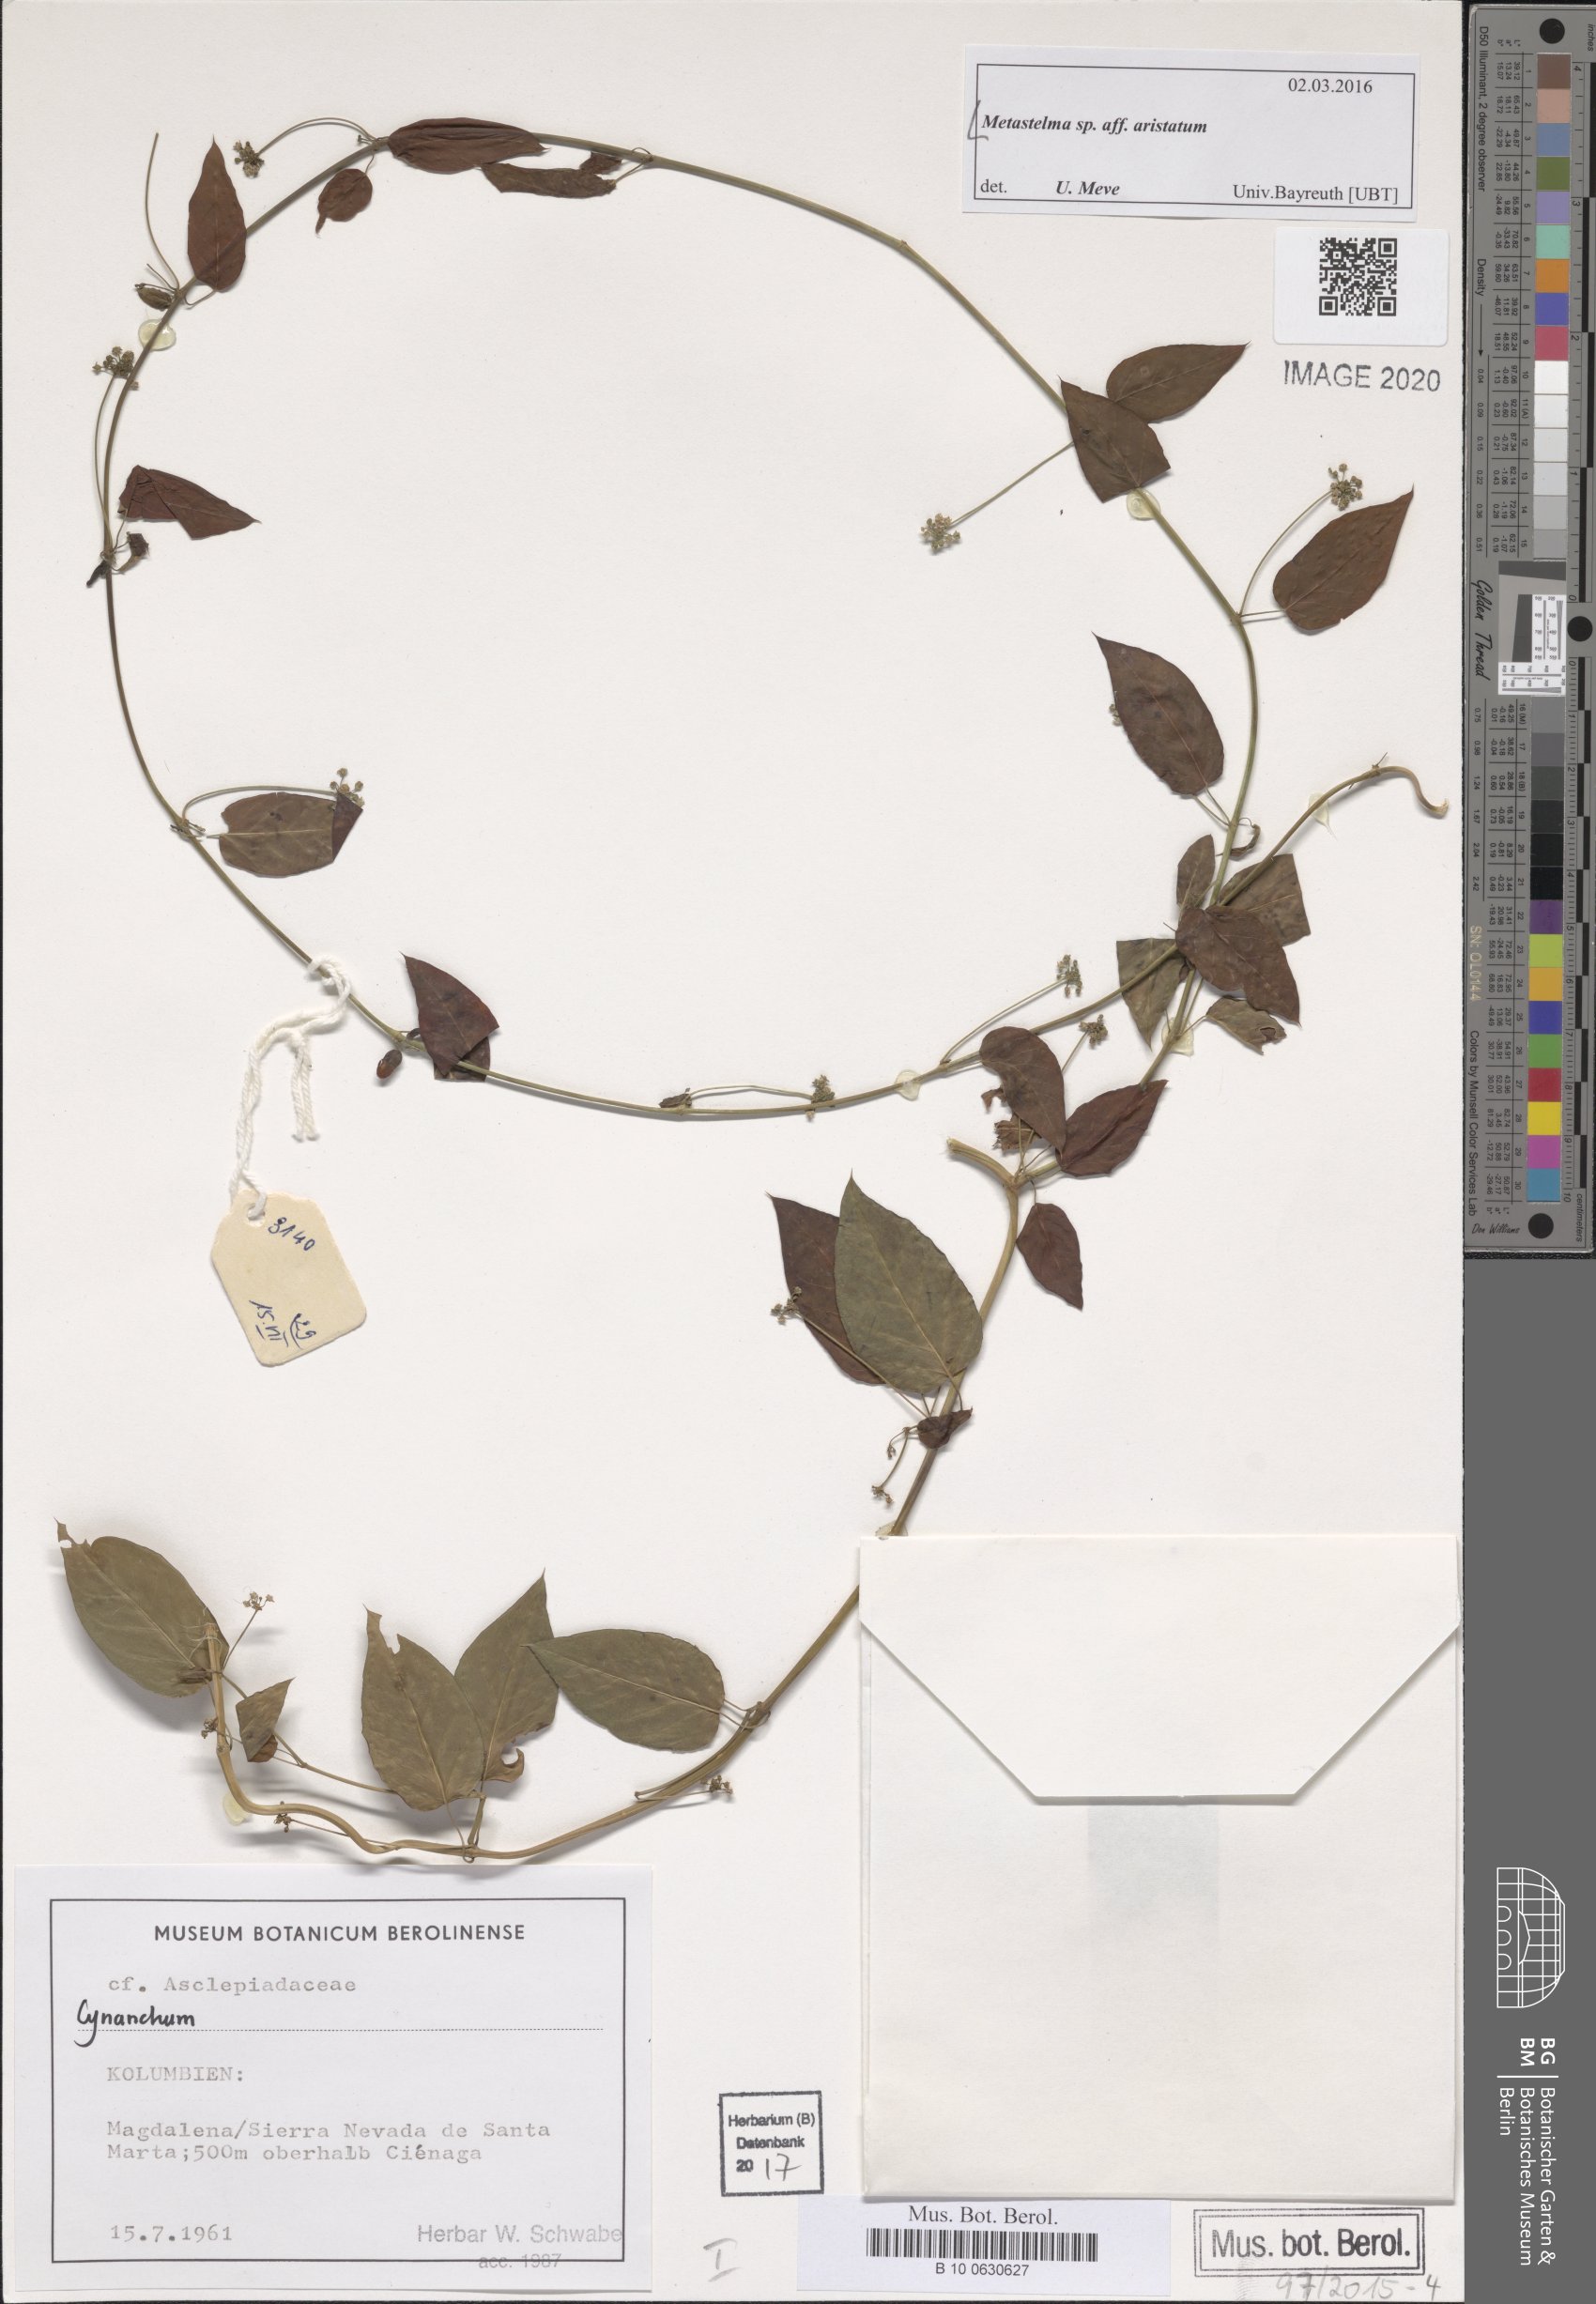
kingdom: Plantae
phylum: Tracheophyta
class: Magnoliopsida
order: Gentianales
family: Apocynaceae
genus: Metastelma
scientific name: Metastelma parviflorum
